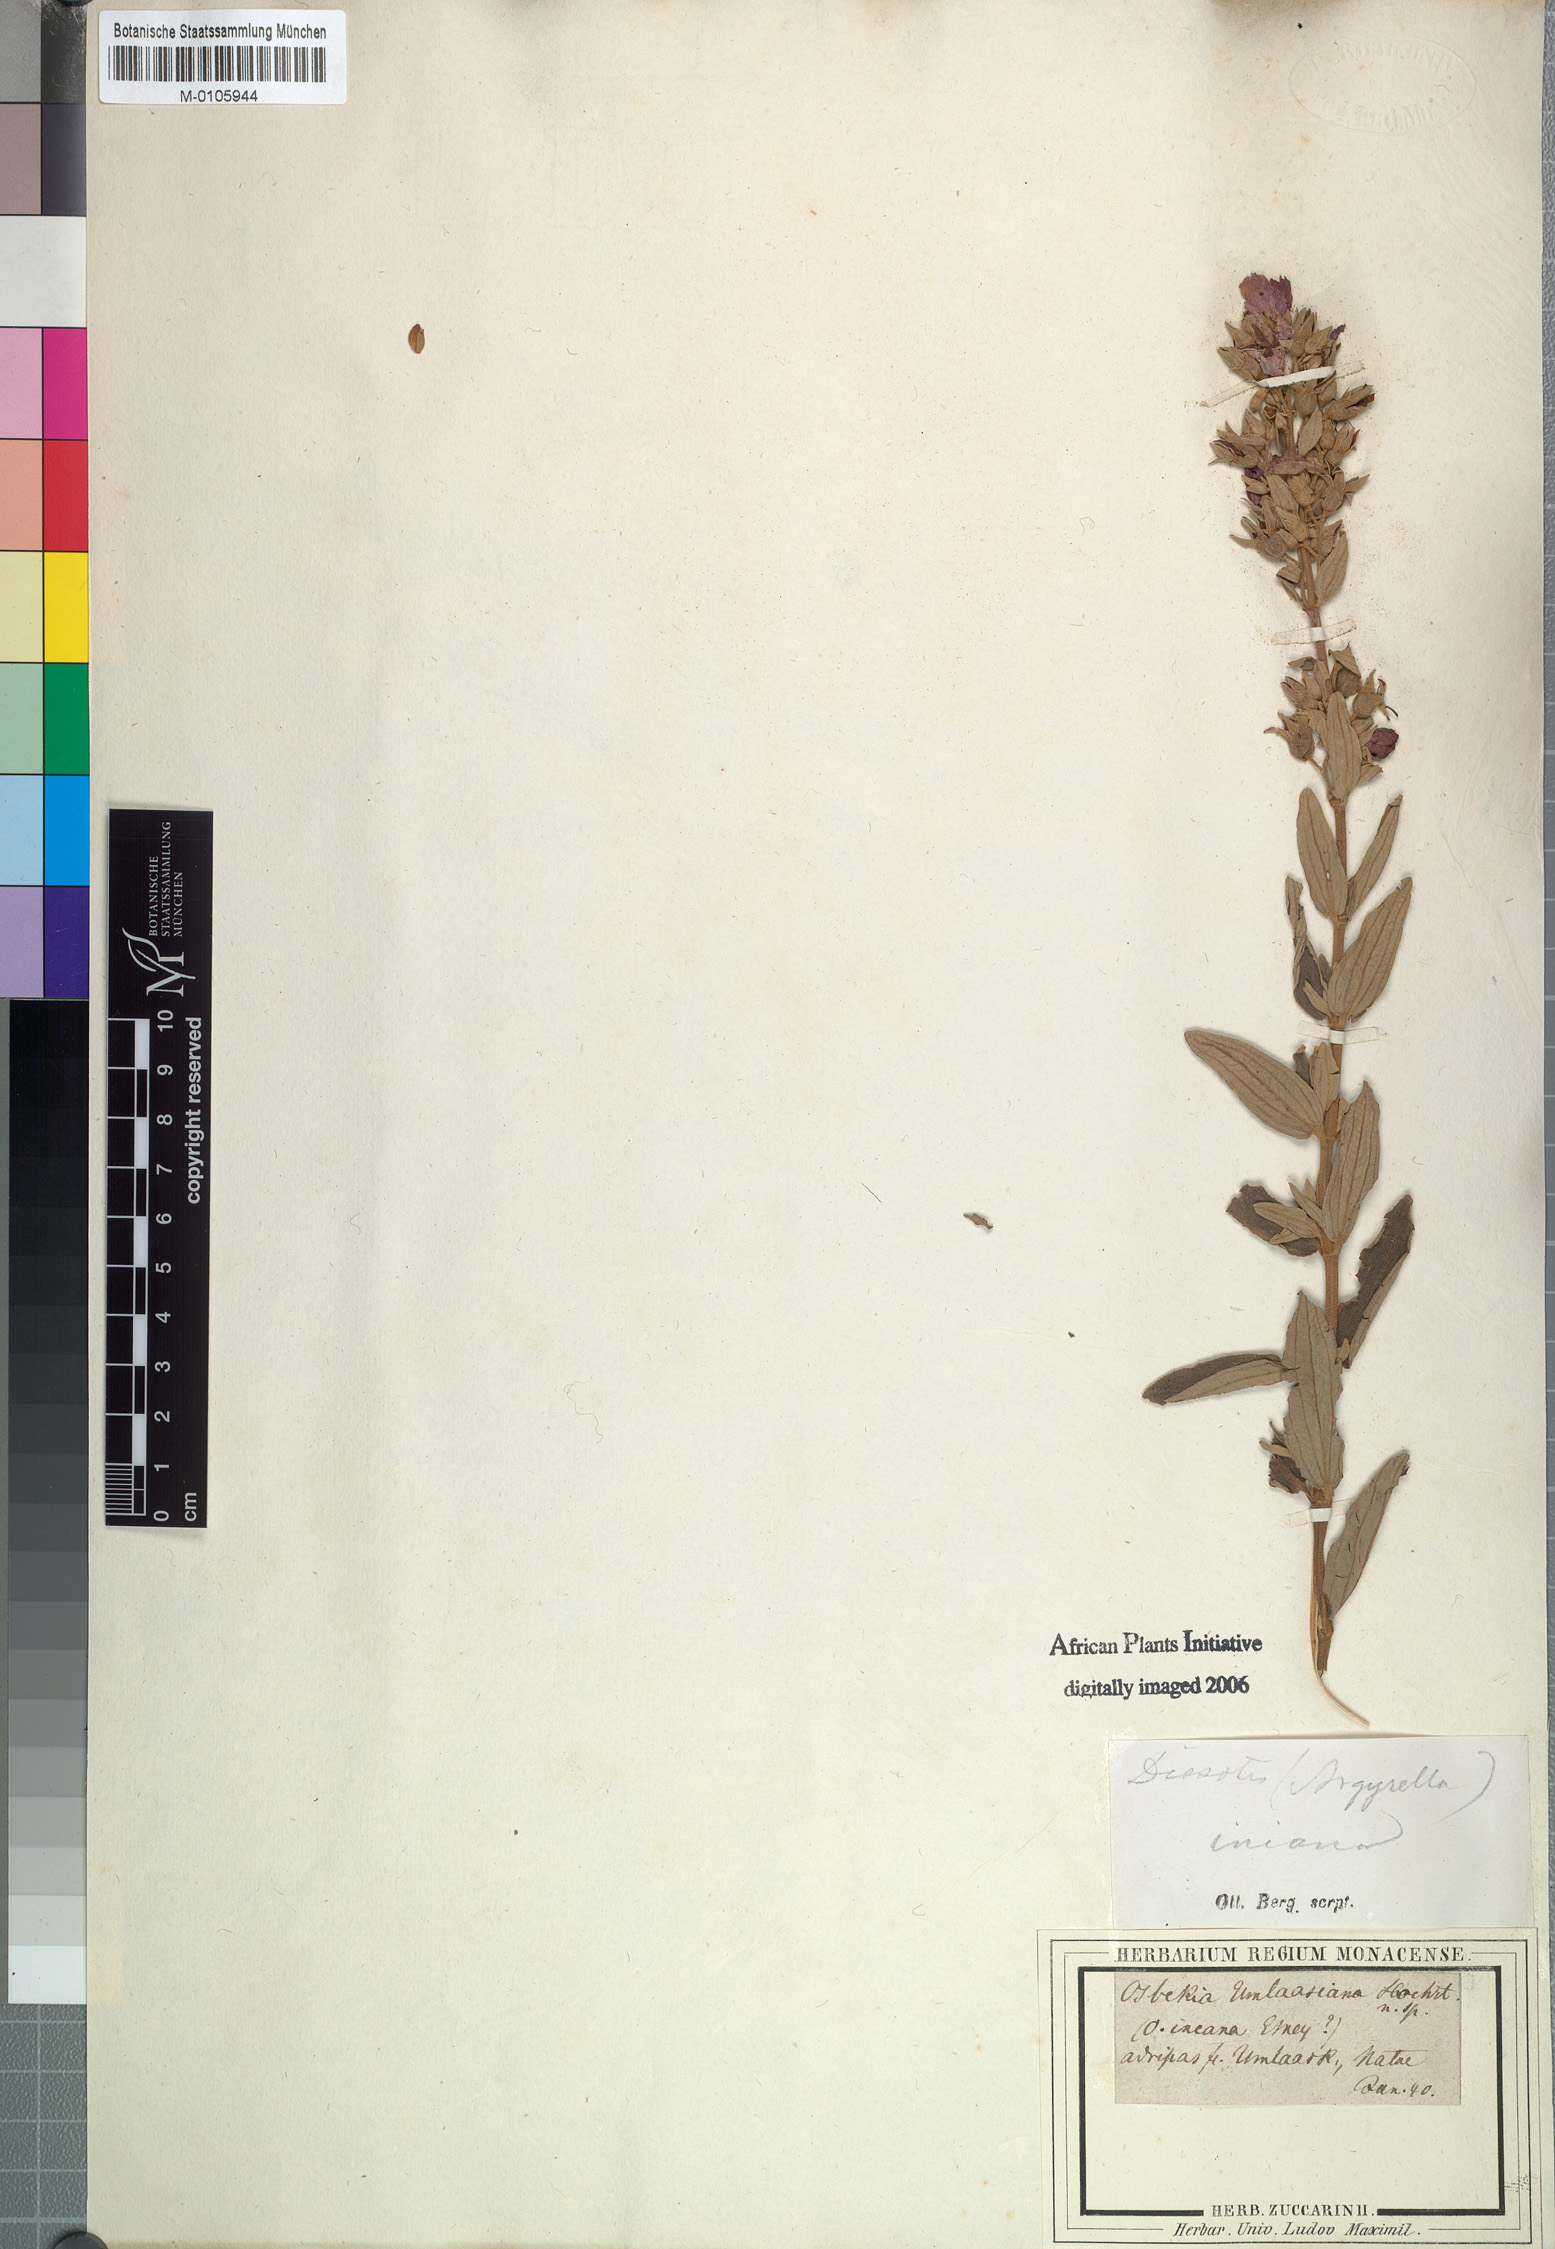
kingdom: Plantae
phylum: Tracheophyta
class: Magnoliopsida
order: Myrtales
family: Melastomataceae
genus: Argyrella
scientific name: Argyrella canescens
